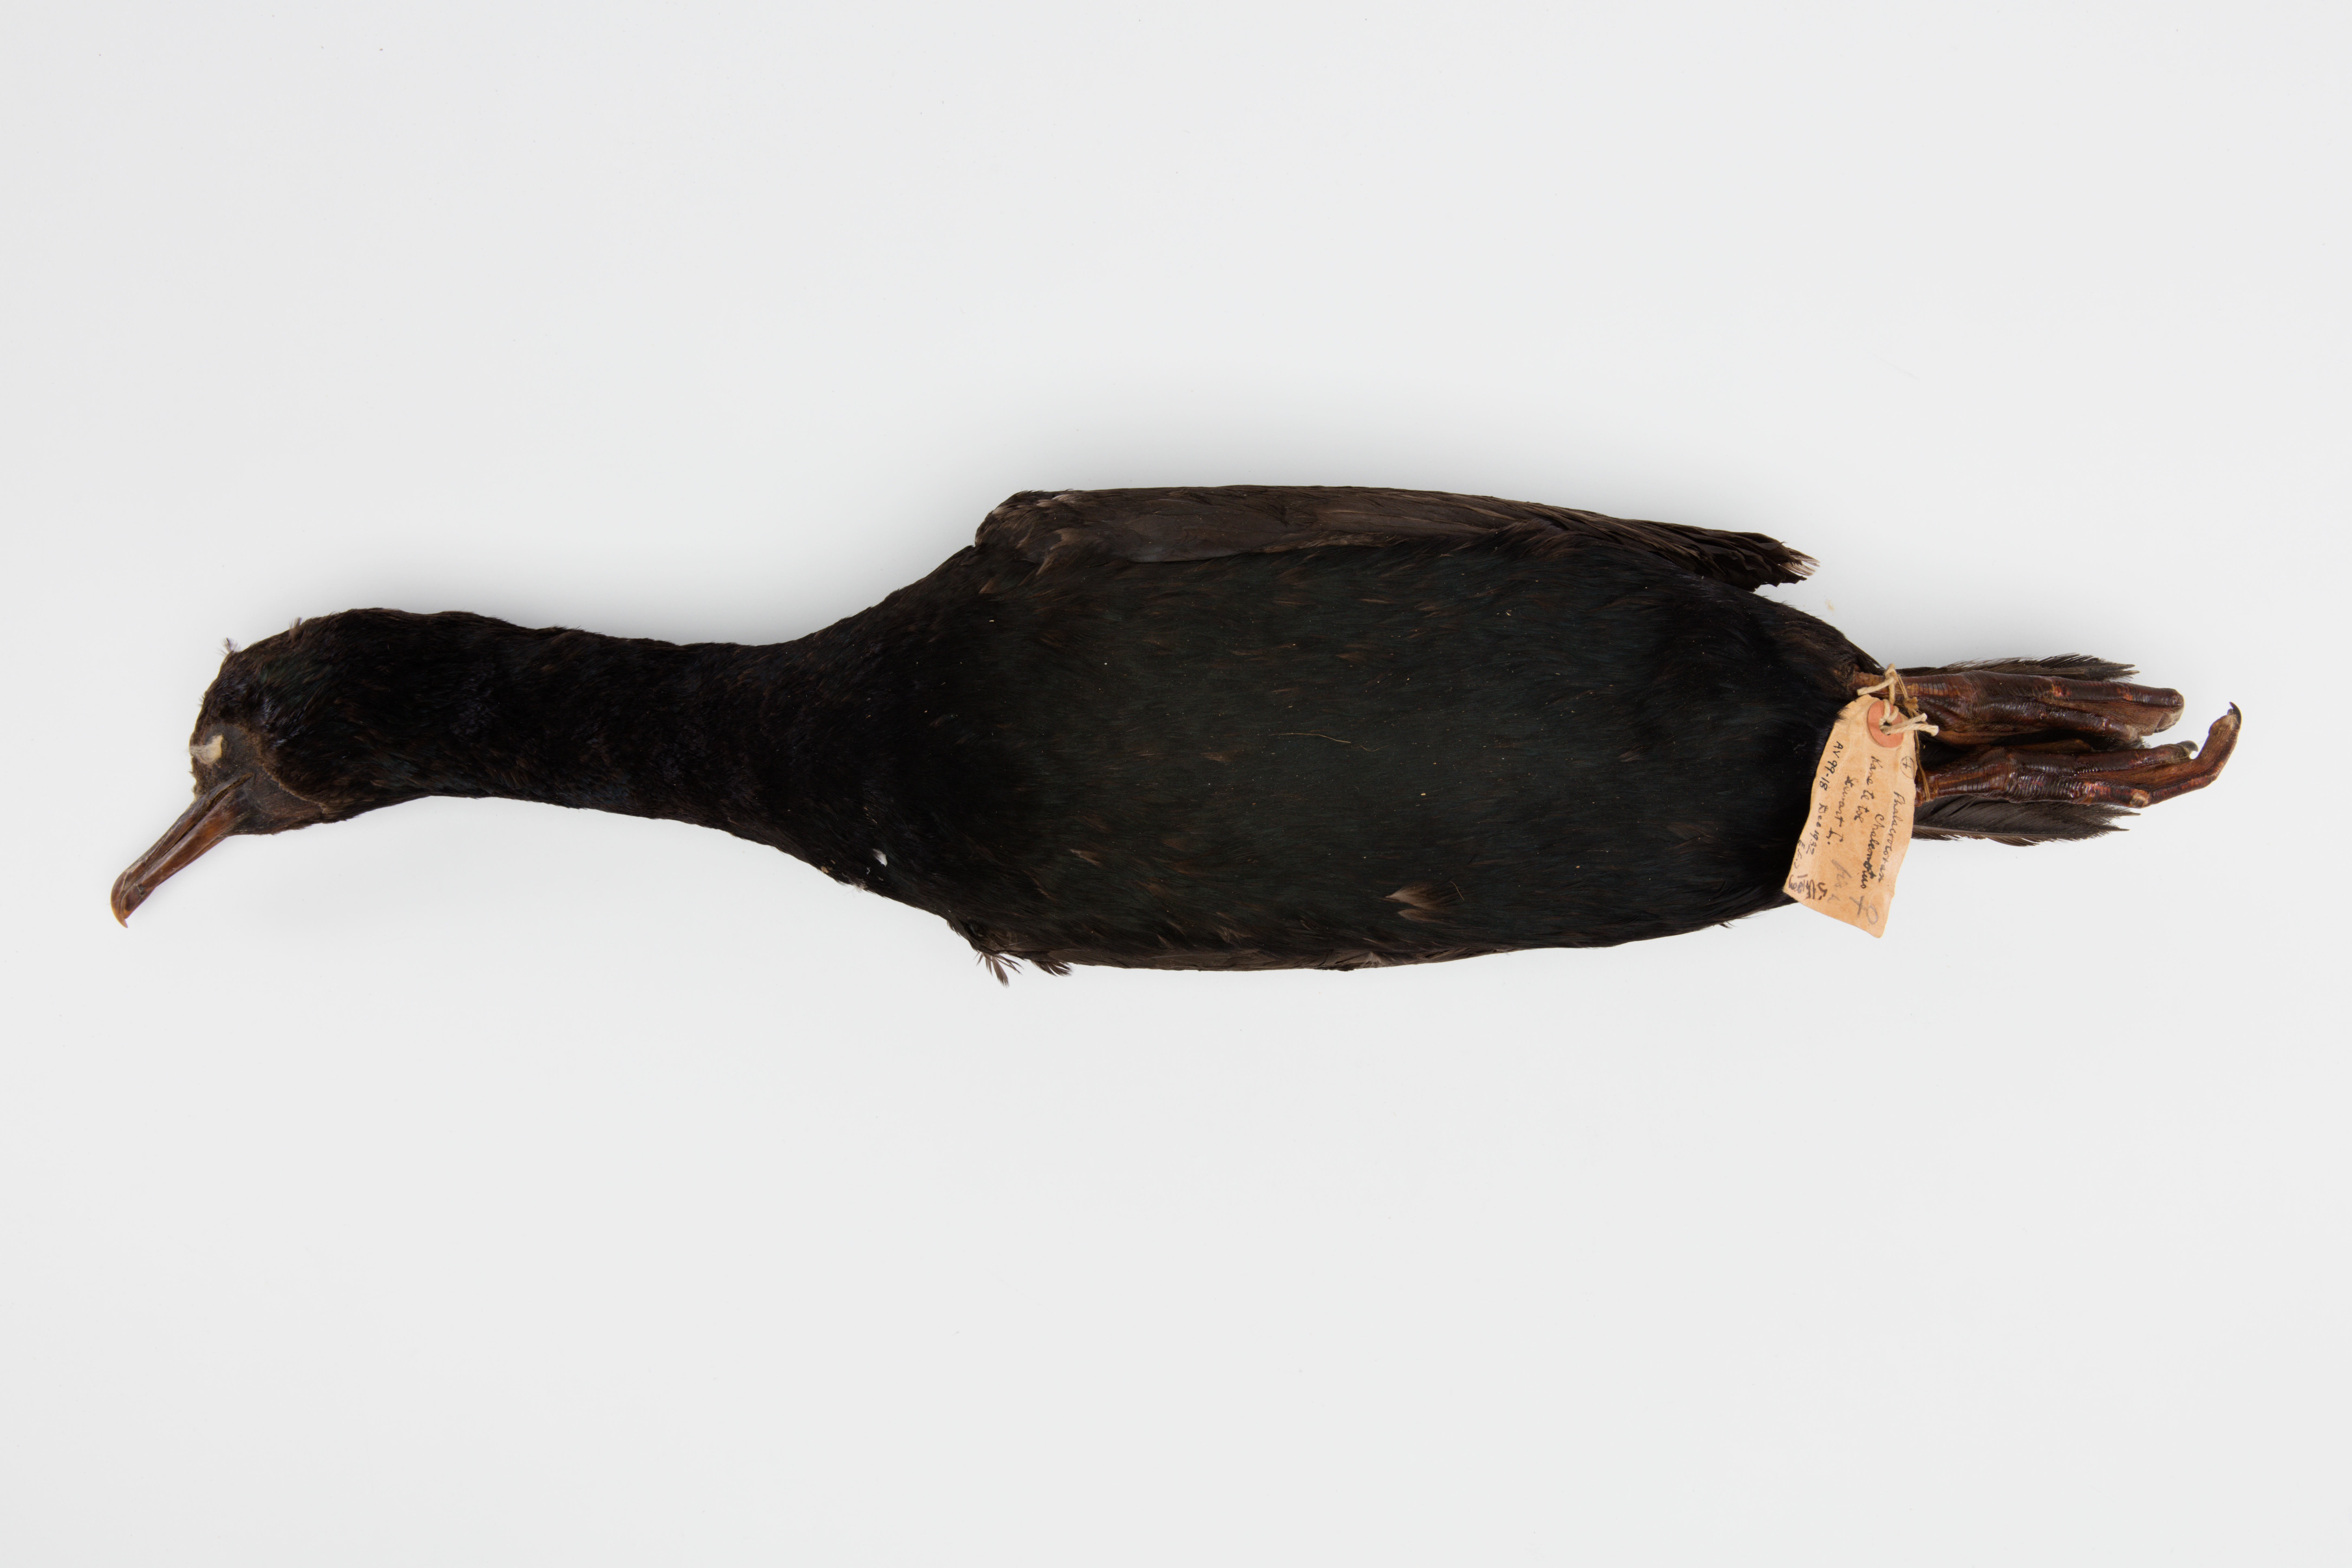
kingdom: Animalia
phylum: Chordata
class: Aves
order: Suliformes
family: Phalacrocoracidae
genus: Leucocarbo
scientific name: Leucocarbo chalconotus
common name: Stewart shag
